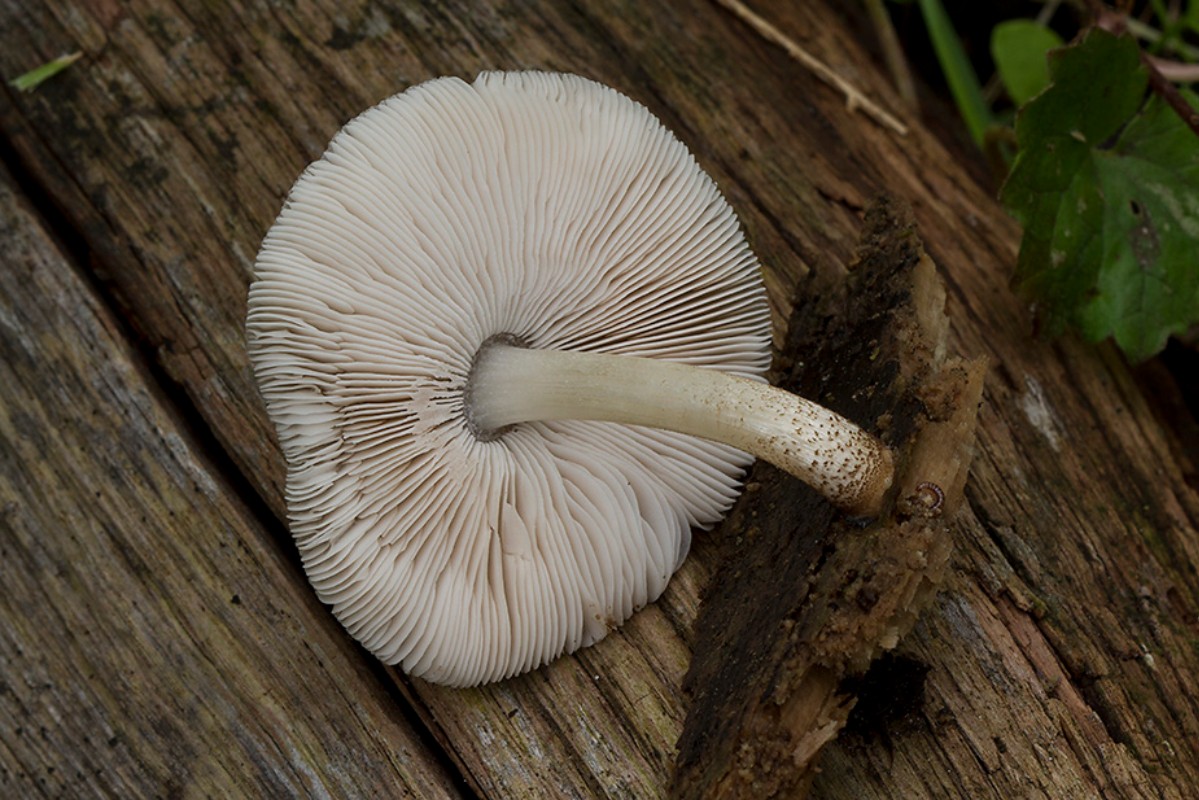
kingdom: Fungi
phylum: Basidiomycota
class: Agaricomycetes
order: Agaricales
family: Pluteaceae
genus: Pluteus
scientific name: Pluteus longistriatus
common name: hjul-skærmhat
